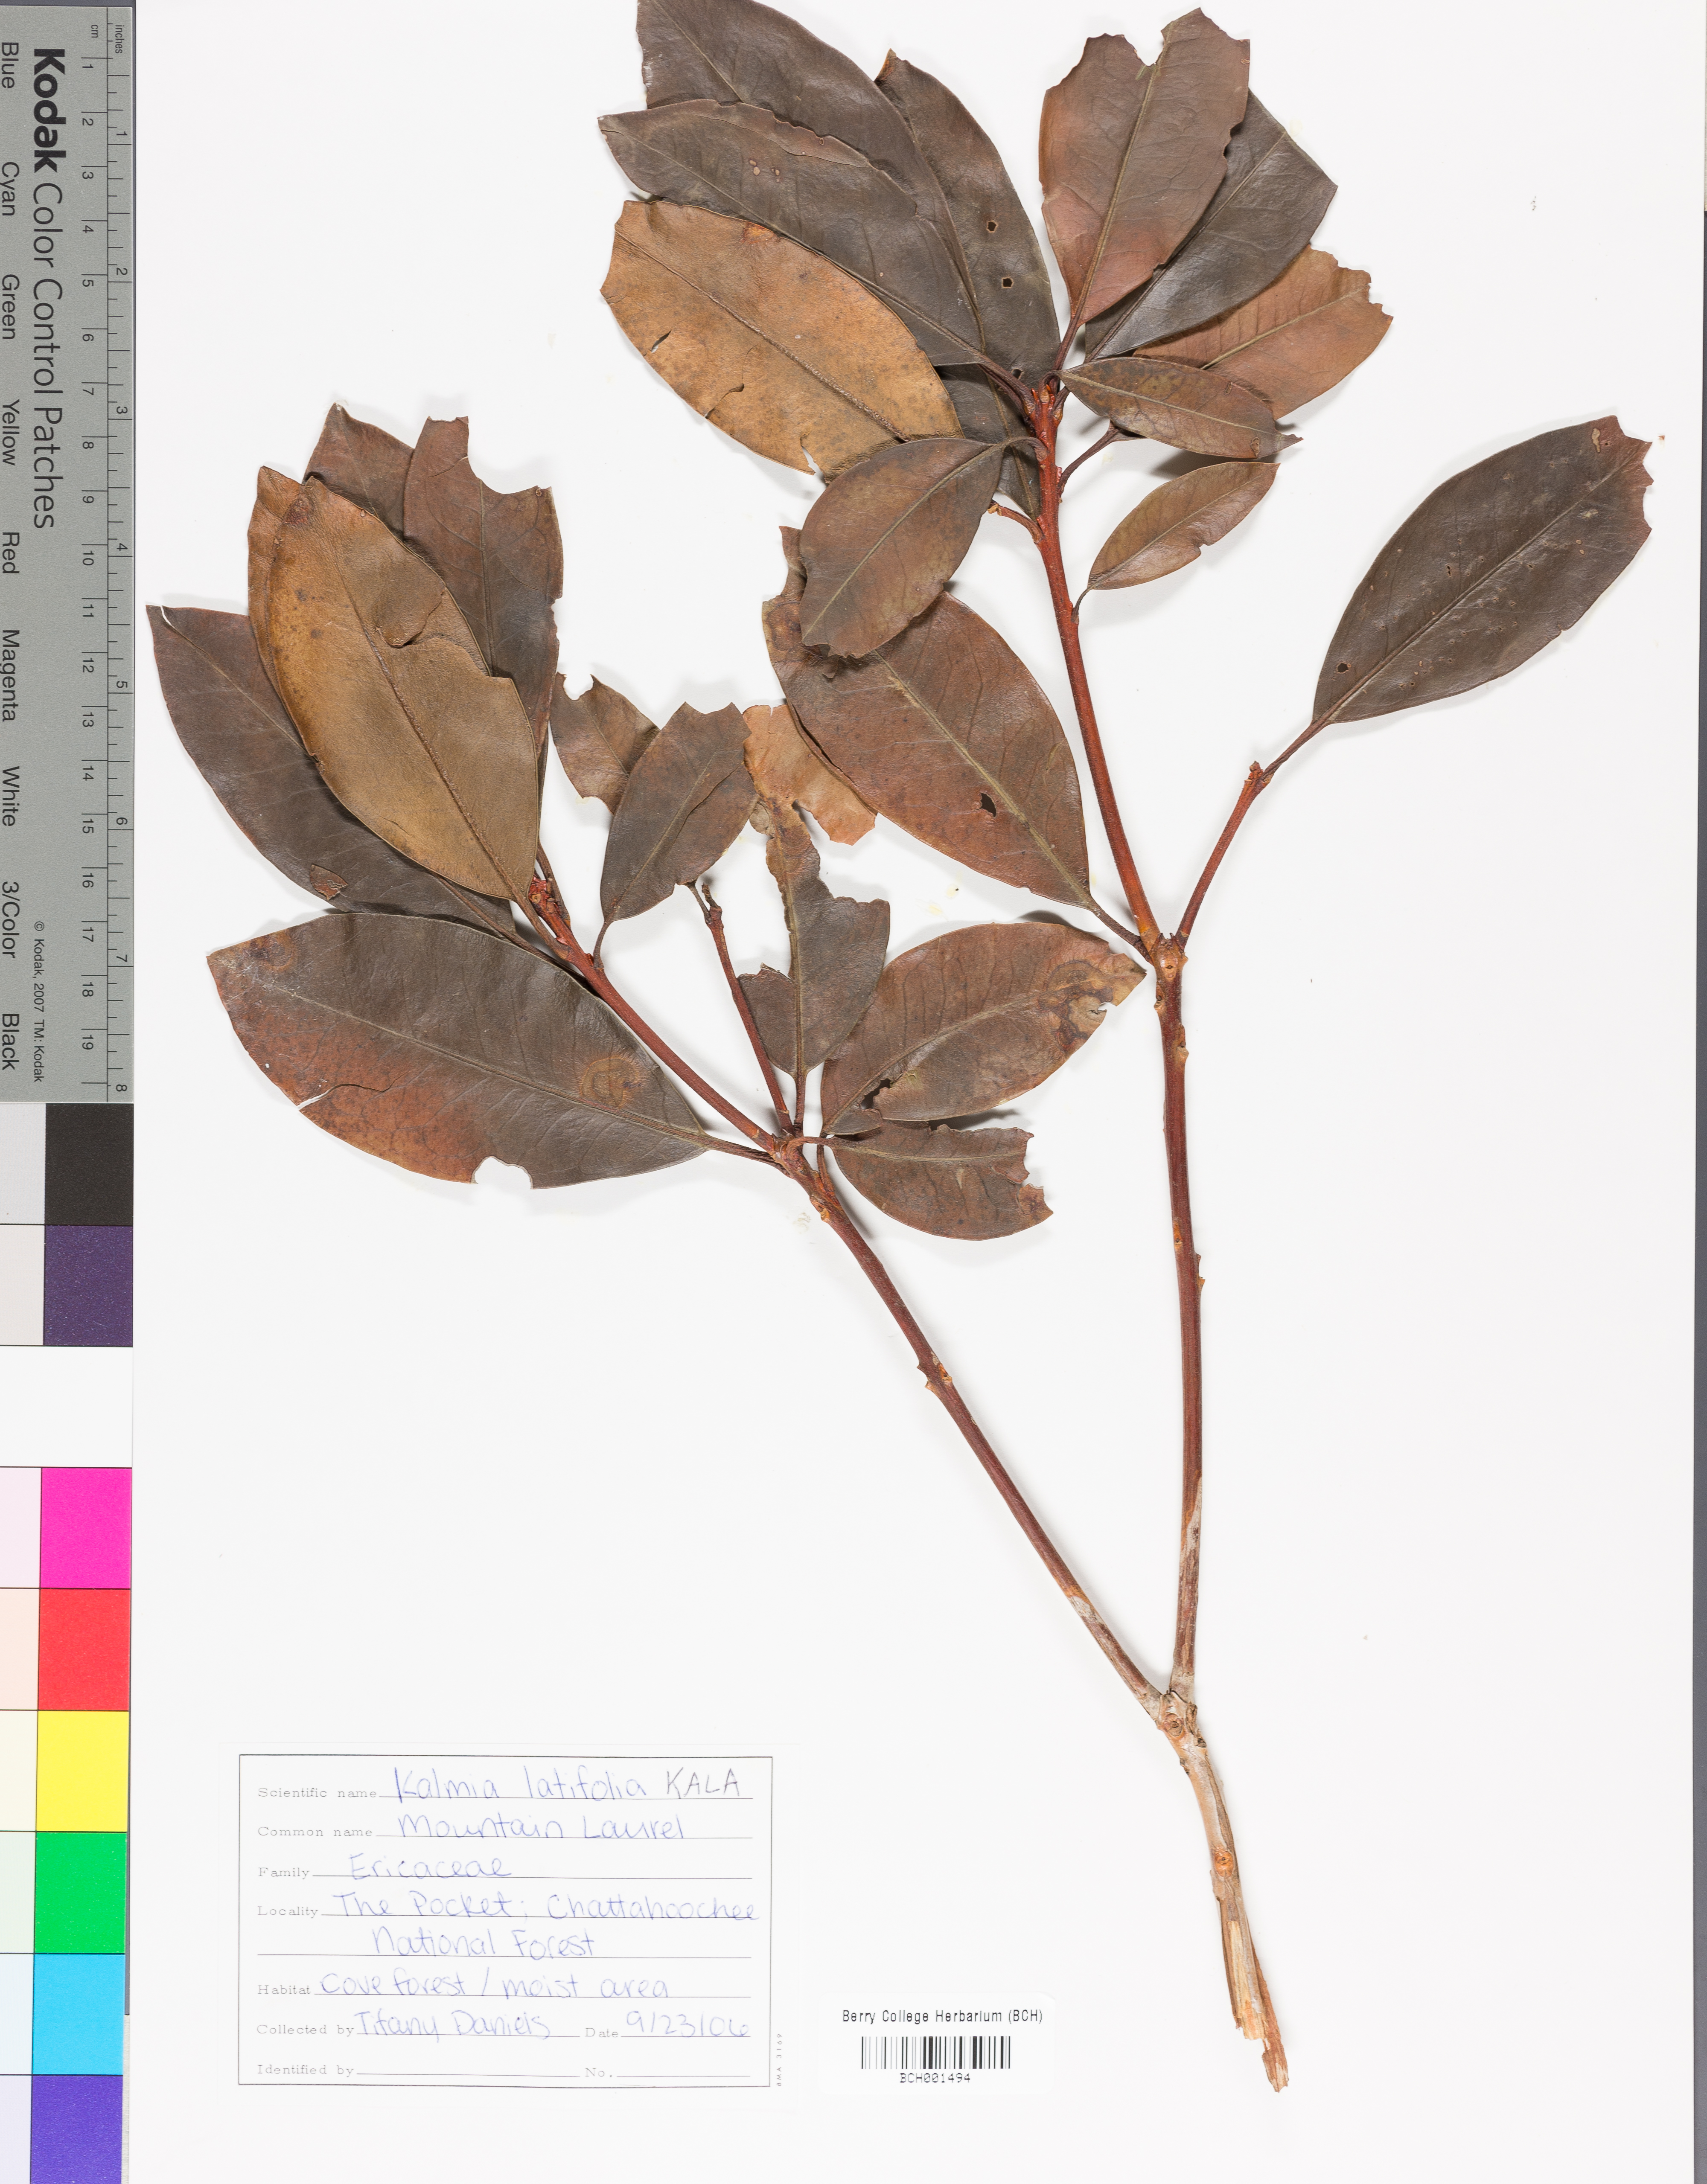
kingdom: Plantae
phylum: Tracheophyta
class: Magnoliopsida
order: Ericales
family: Ericaceae
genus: Kalmia
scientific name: Kalmia latifolia
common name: Mountain-laurel
